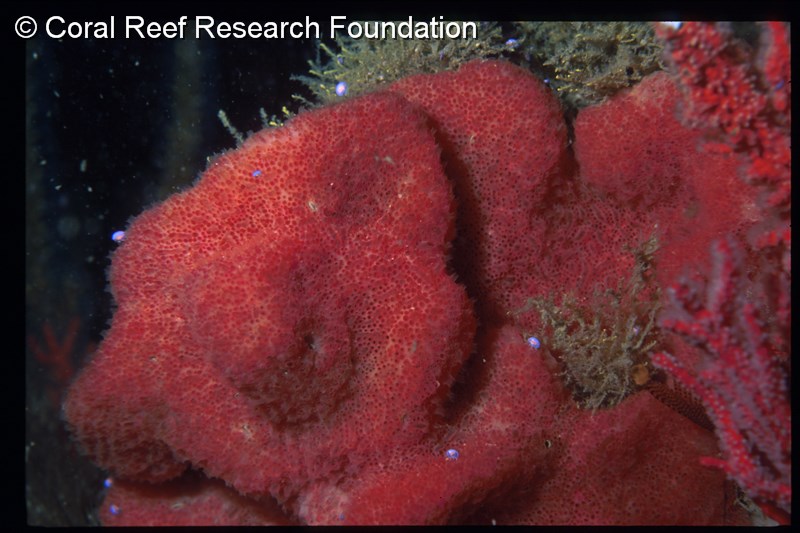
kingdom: Animalia
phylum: Chordata
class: Ascidiacea
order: Aplousobranchia
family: Polyclinidae
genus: Aplidium
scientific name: Aplidium circulatum
